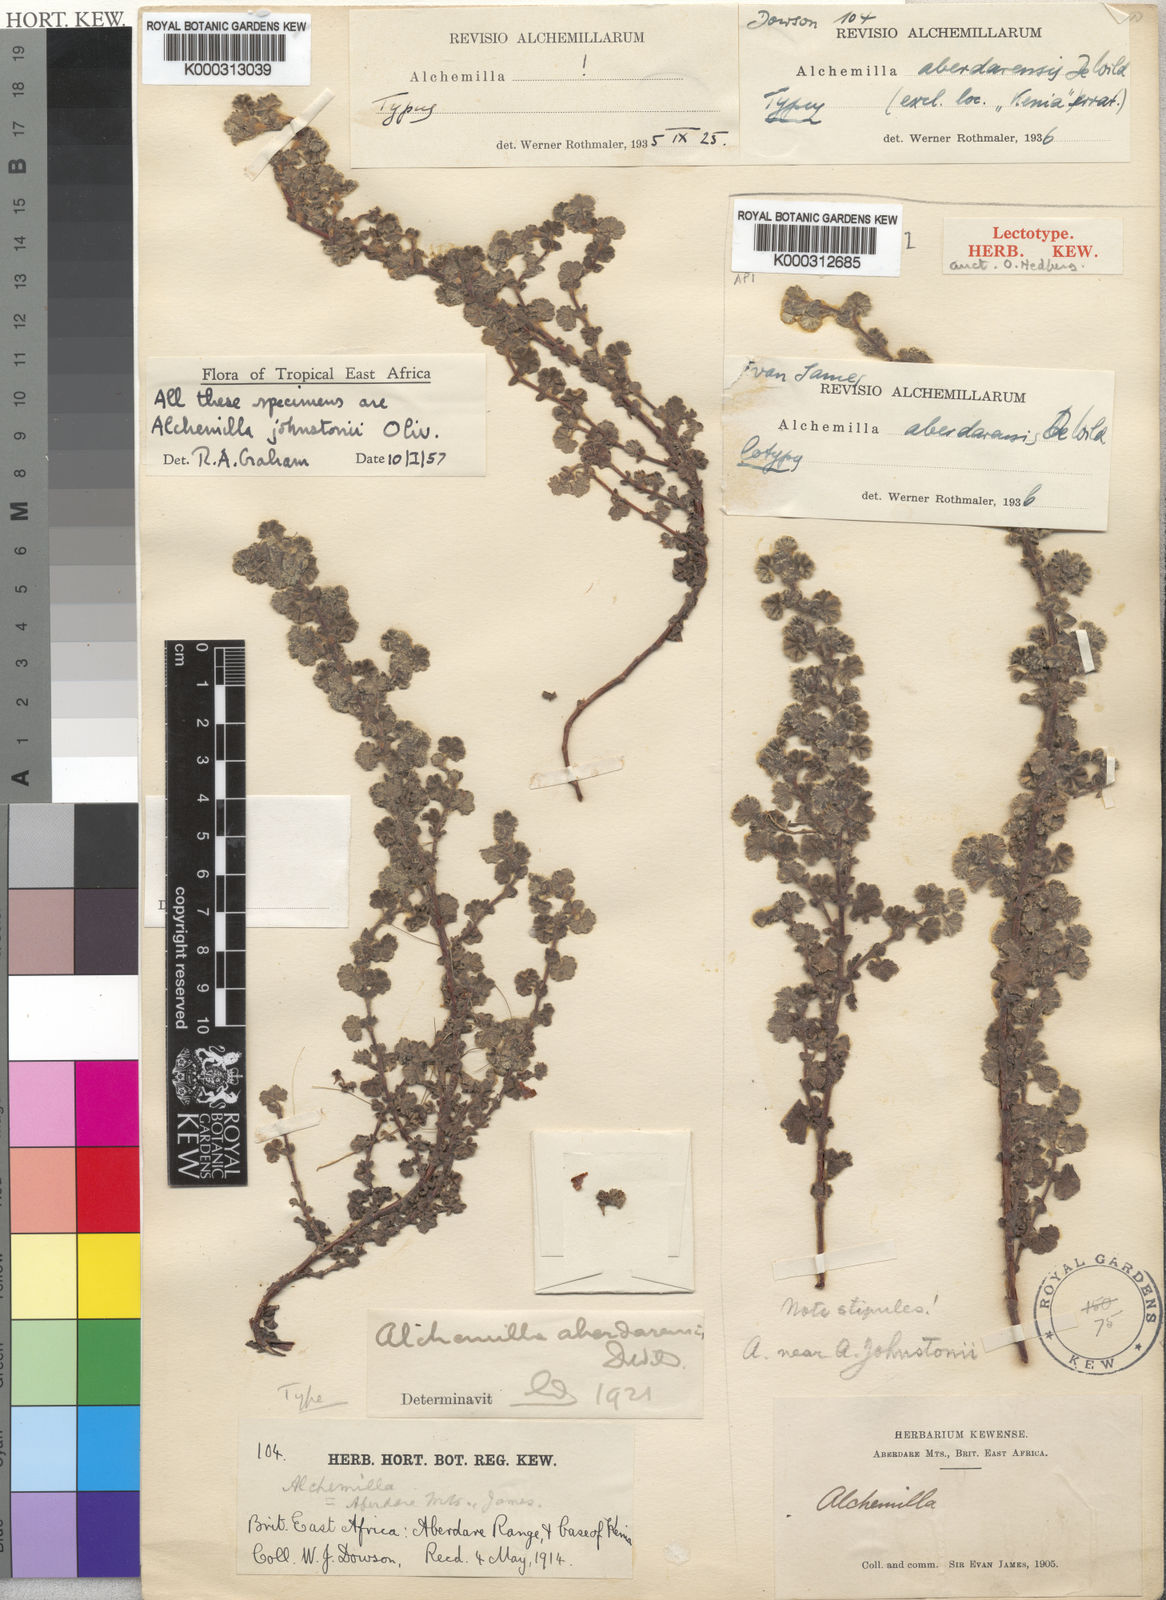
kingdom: Plantae
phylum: Tracheophyta
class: Magnoliopsida
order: Rosales
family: Rosaceae
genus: Alchemilla
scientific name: Alchemilla johnstonii
